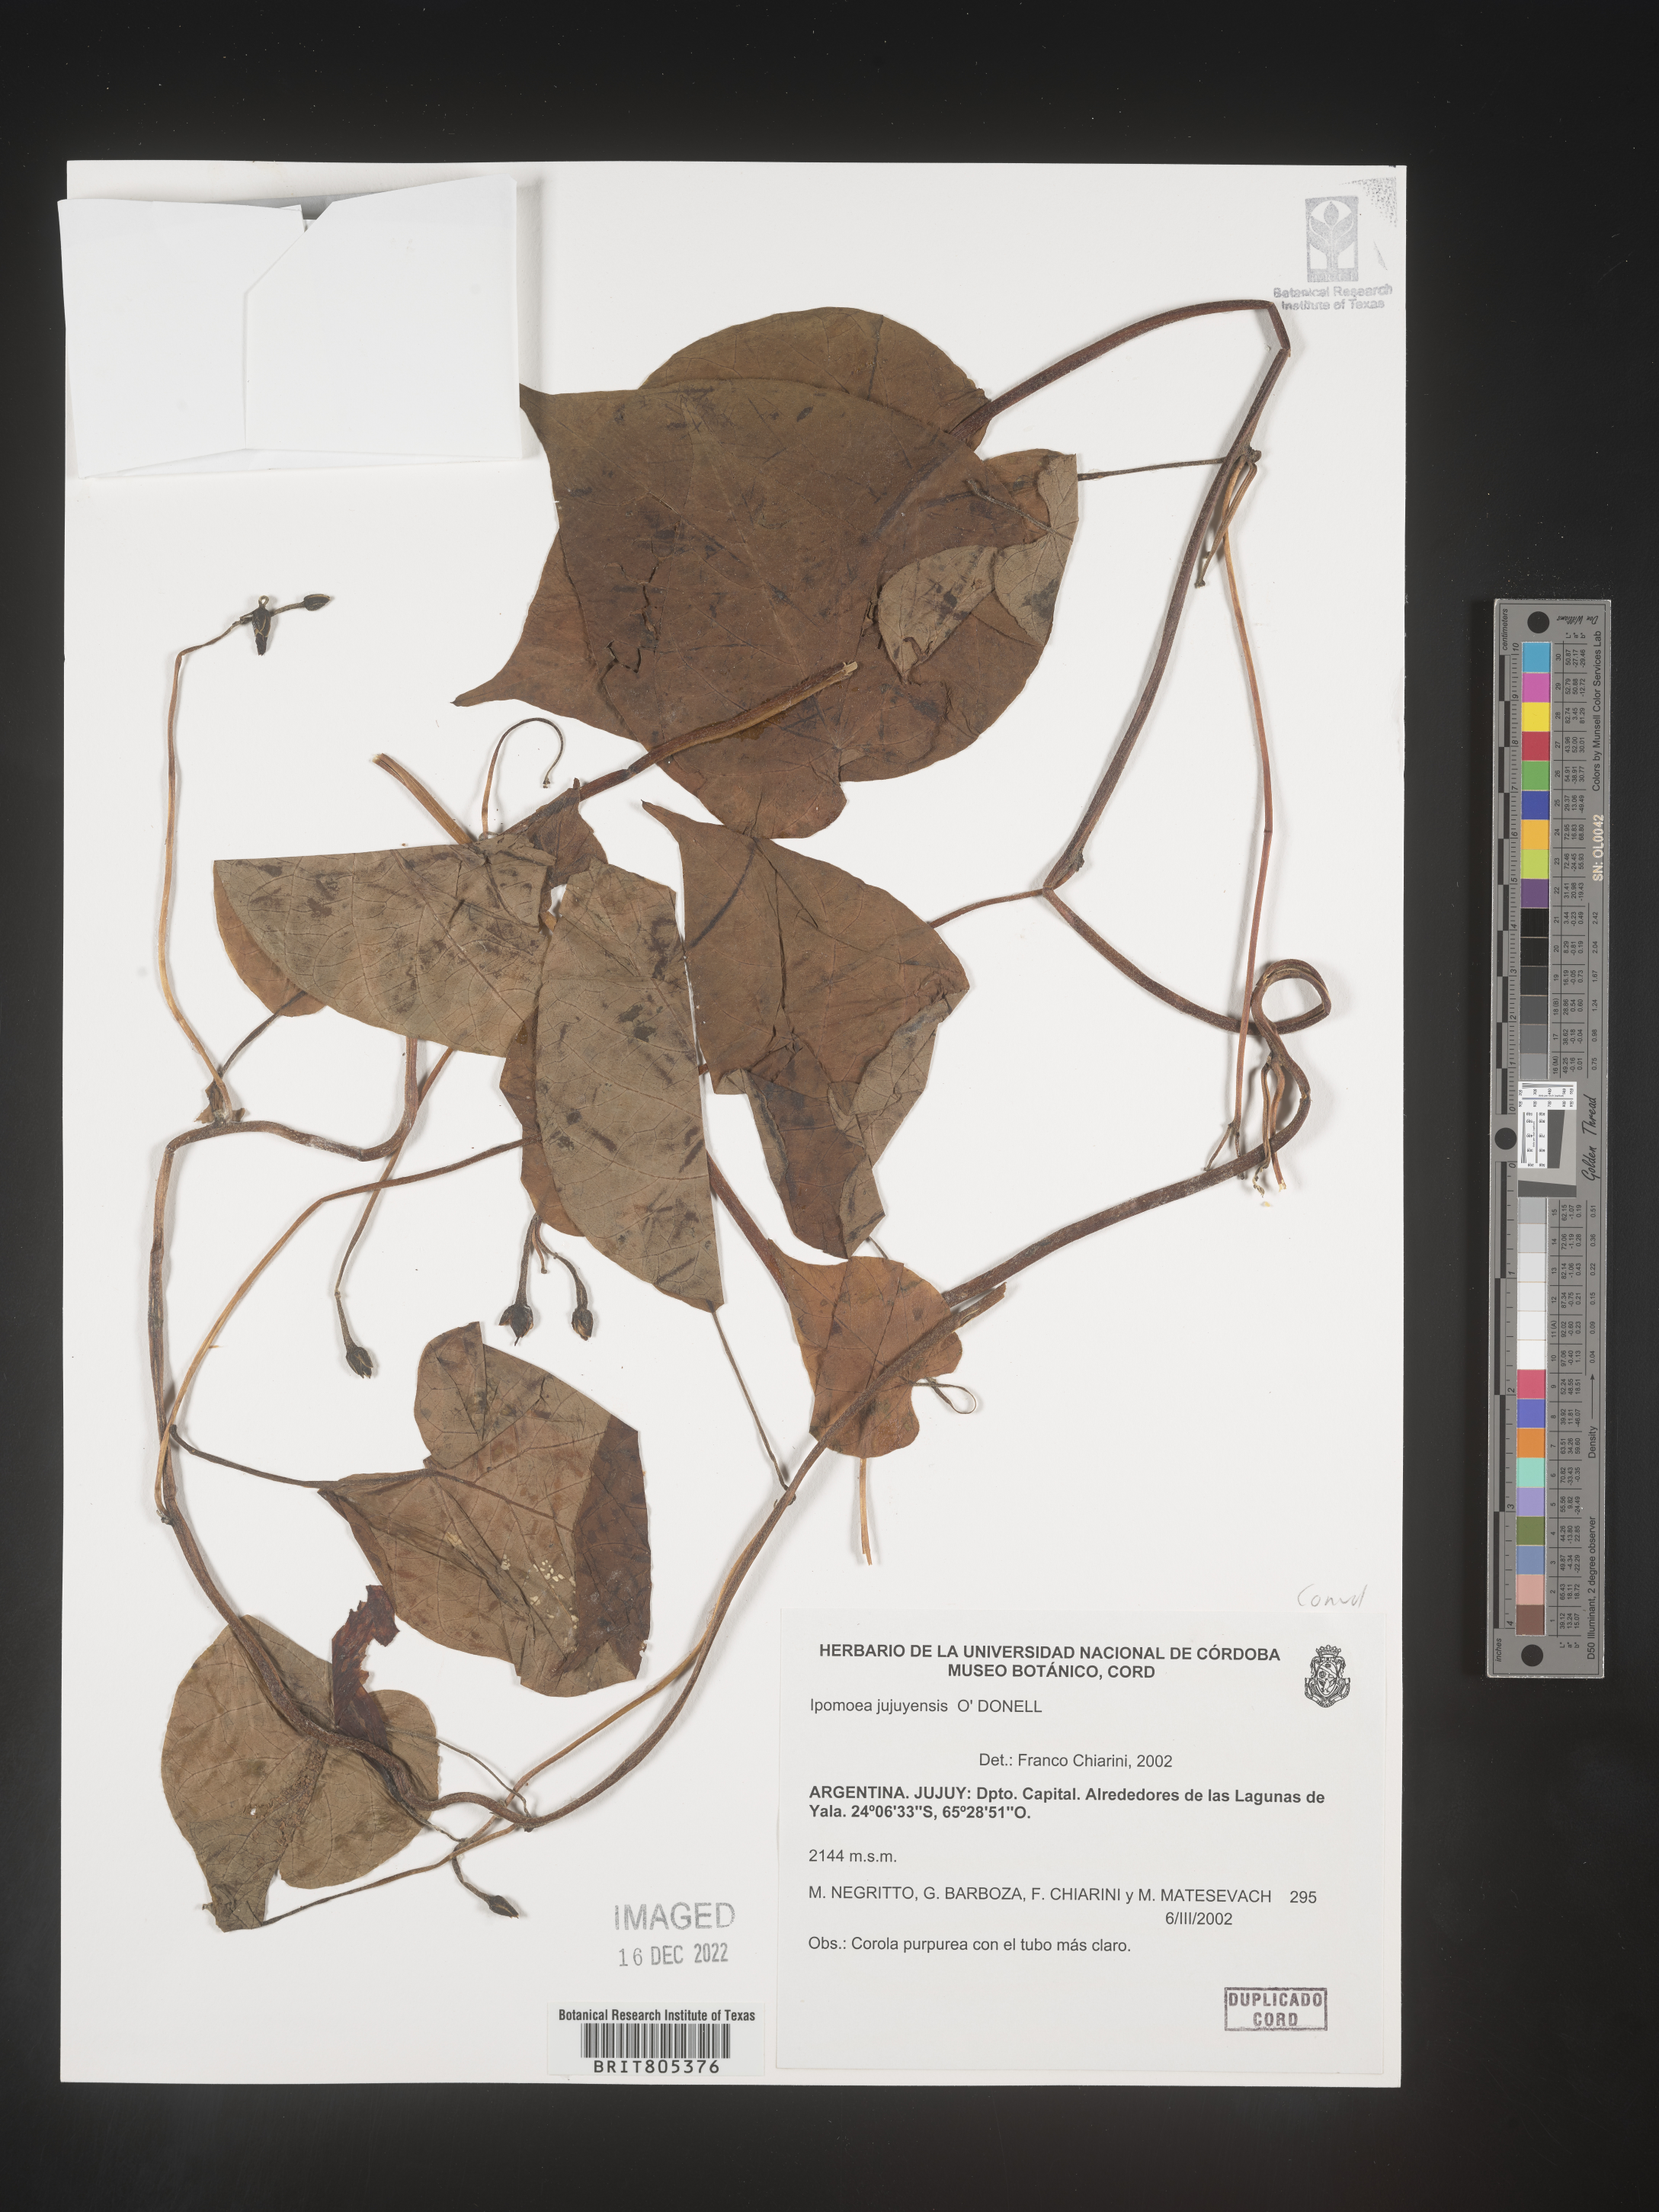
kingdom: Plantae
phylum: Tracheophyta
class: Magnoliopsida
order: Solanales
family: Convolvulaceae
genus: Ipomoea
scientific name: Ipomoea
